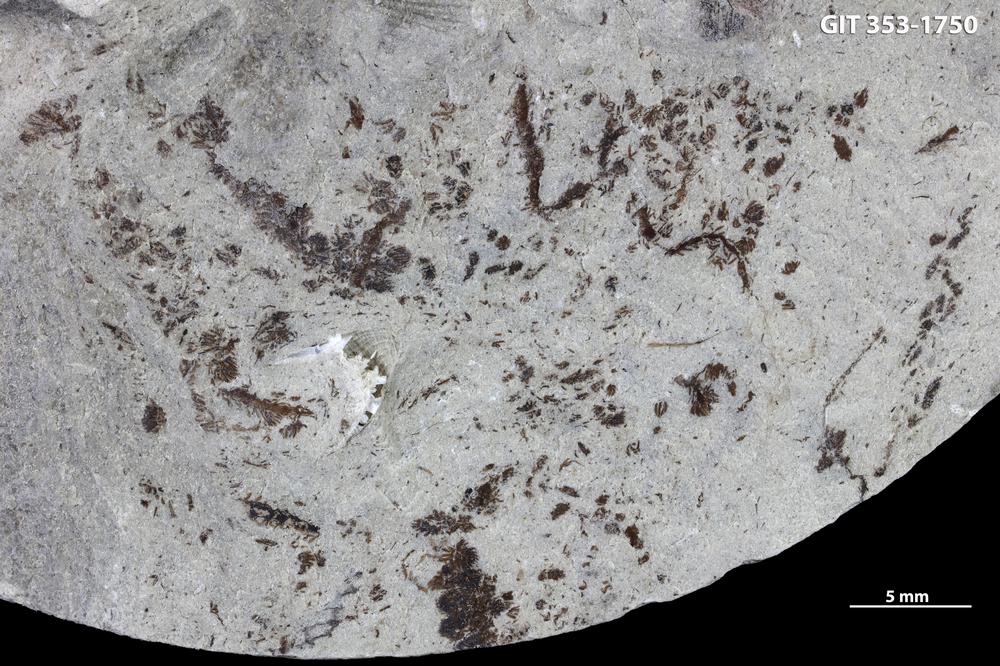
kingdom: Plantae
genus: Leveilleites
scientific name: Leveilleites hartnageli
